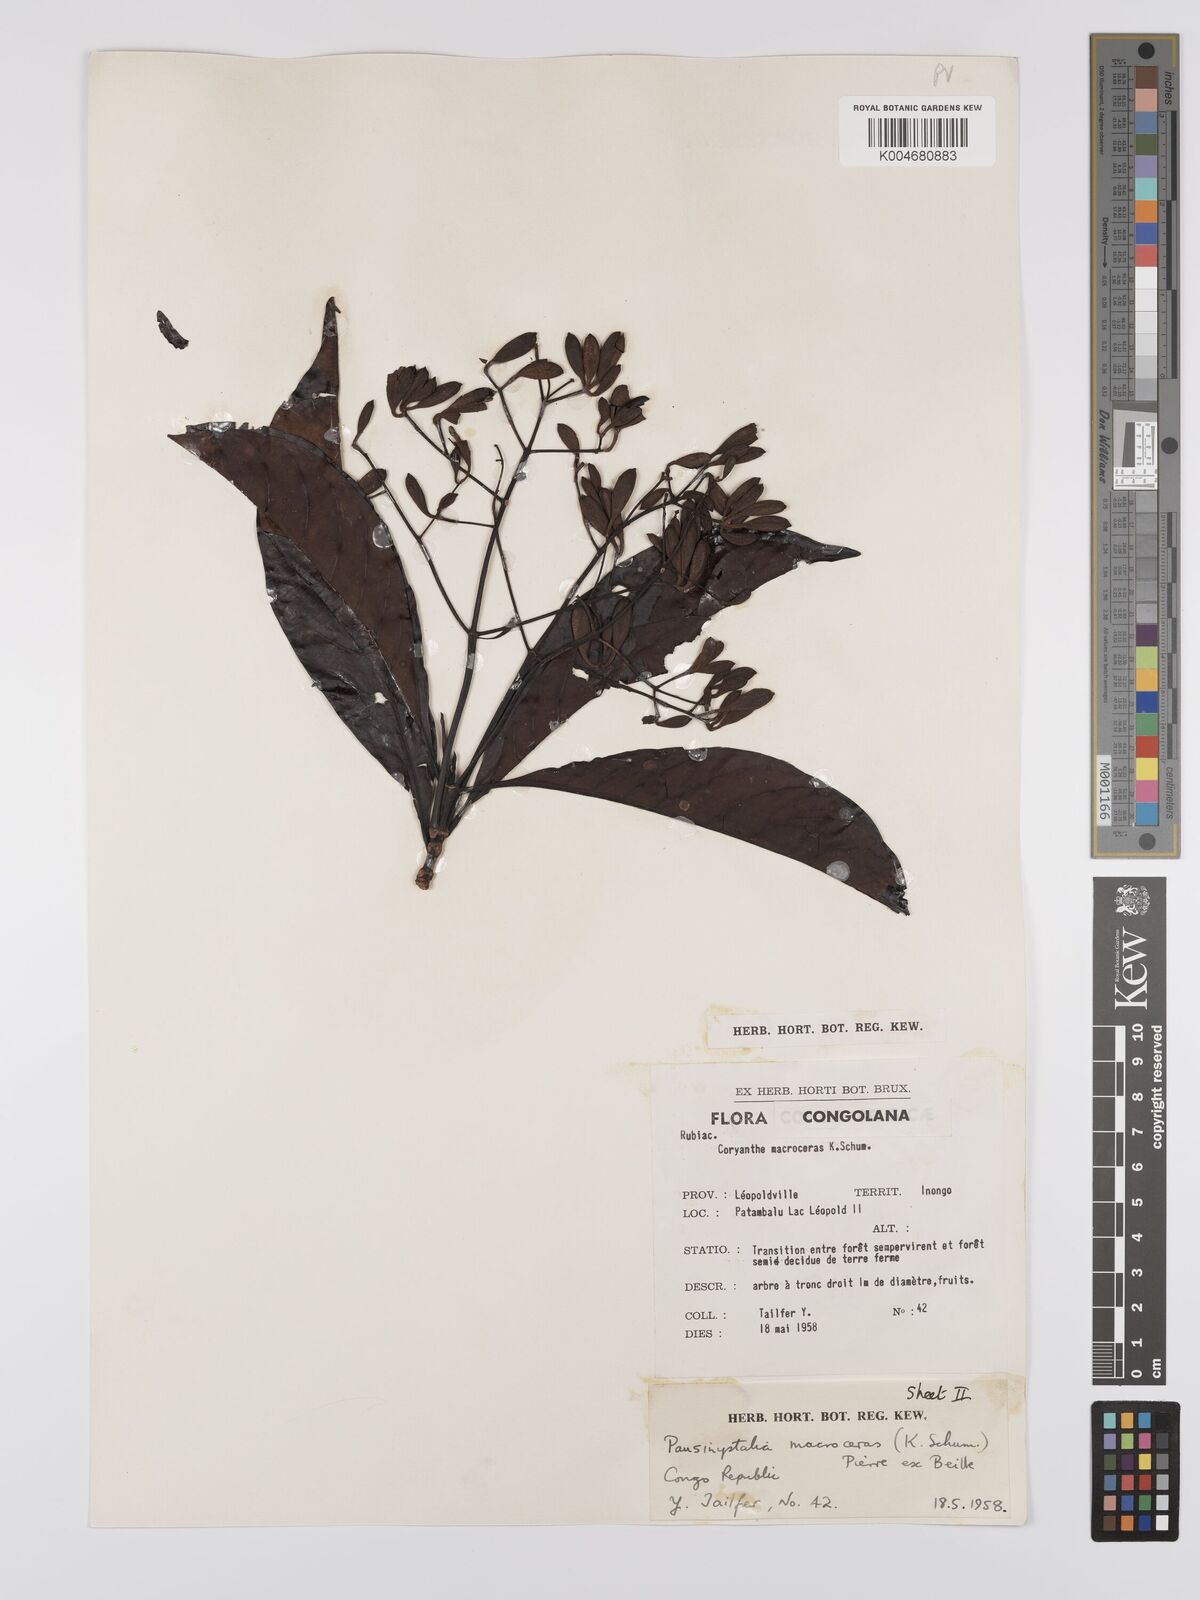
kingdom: Plantae
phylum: Tracheophyta
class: Magnoliopsida
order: Gentianales
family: Rubiaceae
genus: Corynanthe
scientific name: Corynanthe macroceras
